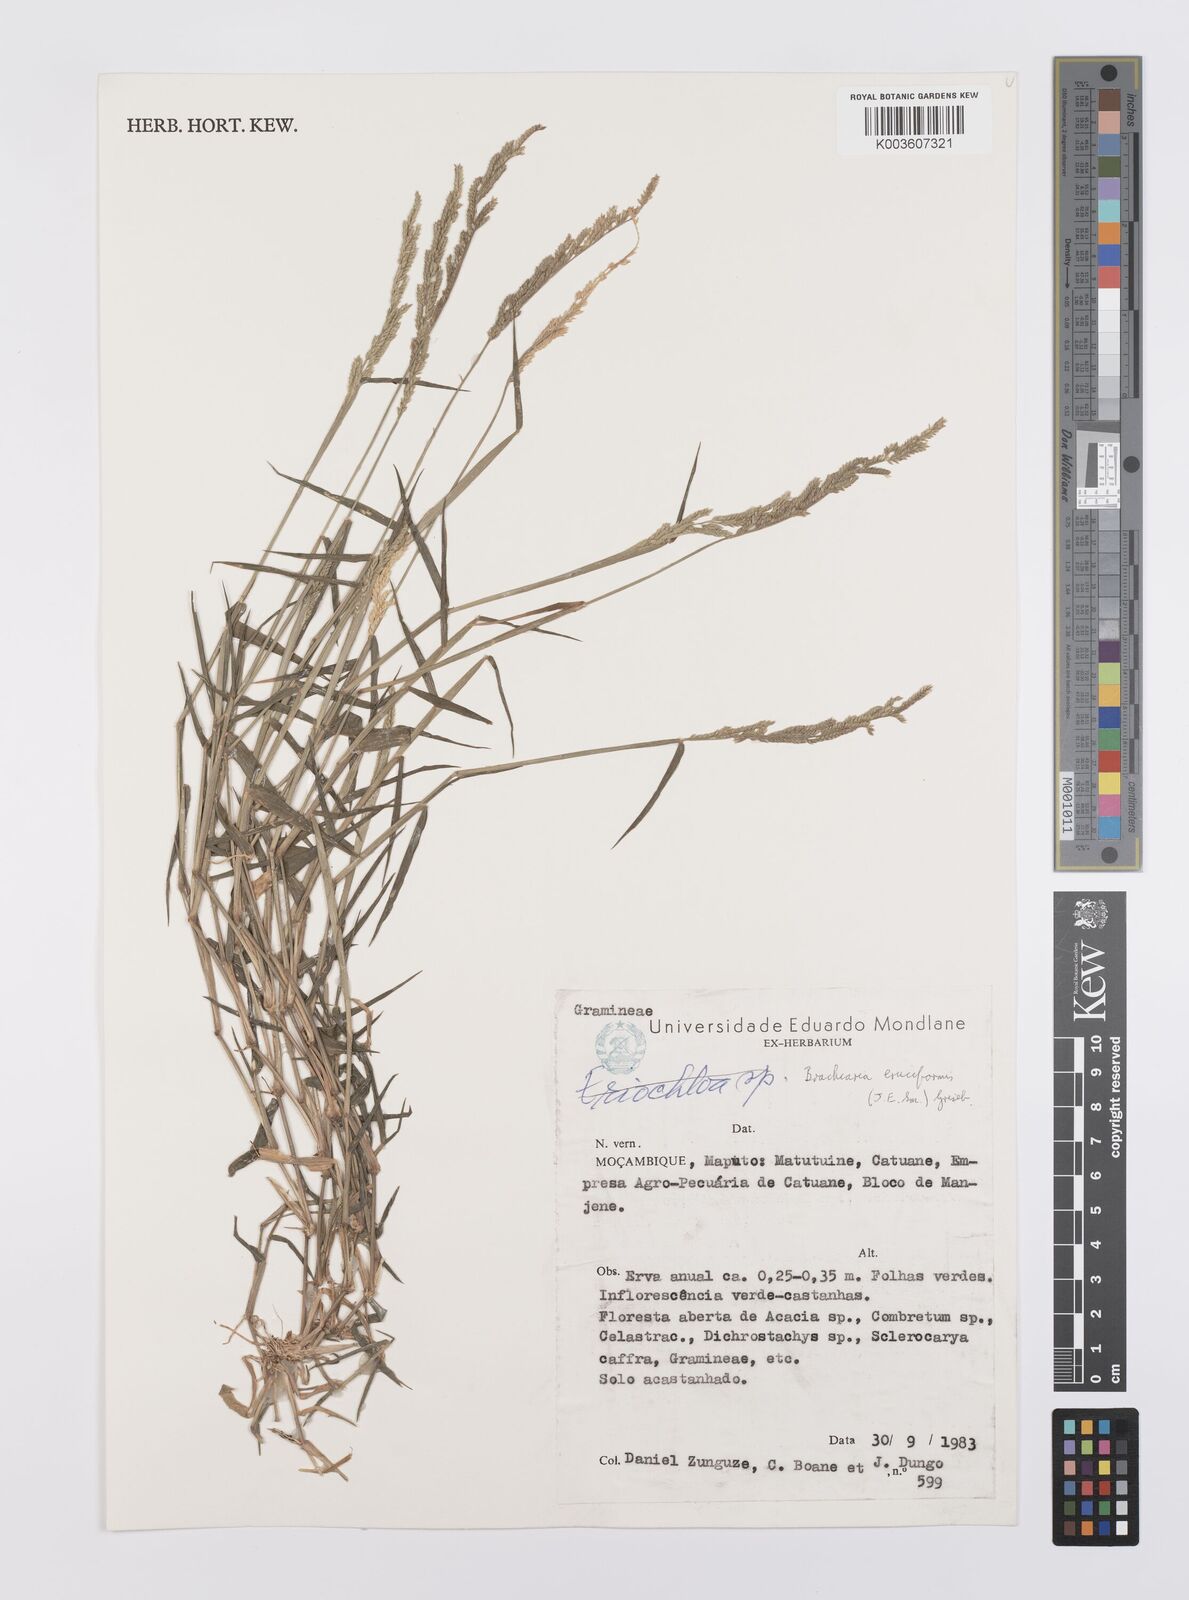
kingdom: Plantae
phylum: Tracheophyta
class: Liliopsida
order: Poales
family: Poaceae
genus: Moorochloa
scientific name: Moorochloa eruciformis
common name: Sweet signalgrass
